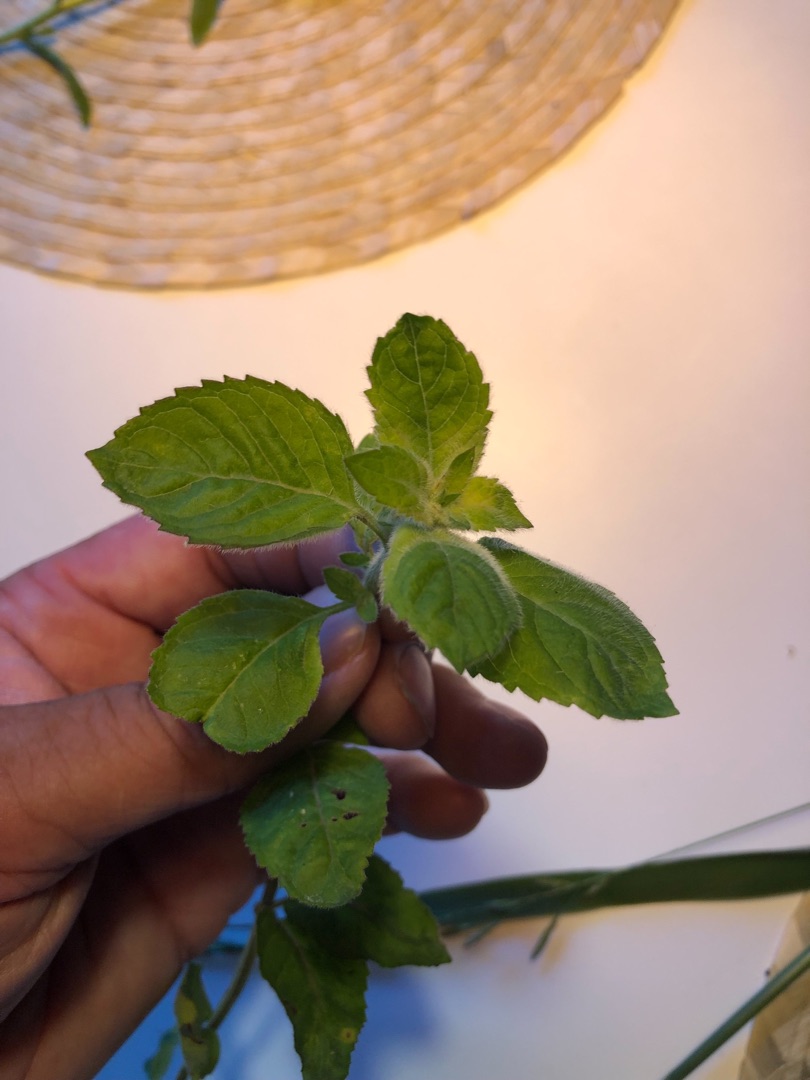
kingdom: Plantae
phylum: Tracheophyta
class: Magnoliopsida
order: Lamiales
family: Lamiaceae
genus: Mentha
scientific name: Mentha aquatica
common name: Vand-mynte
